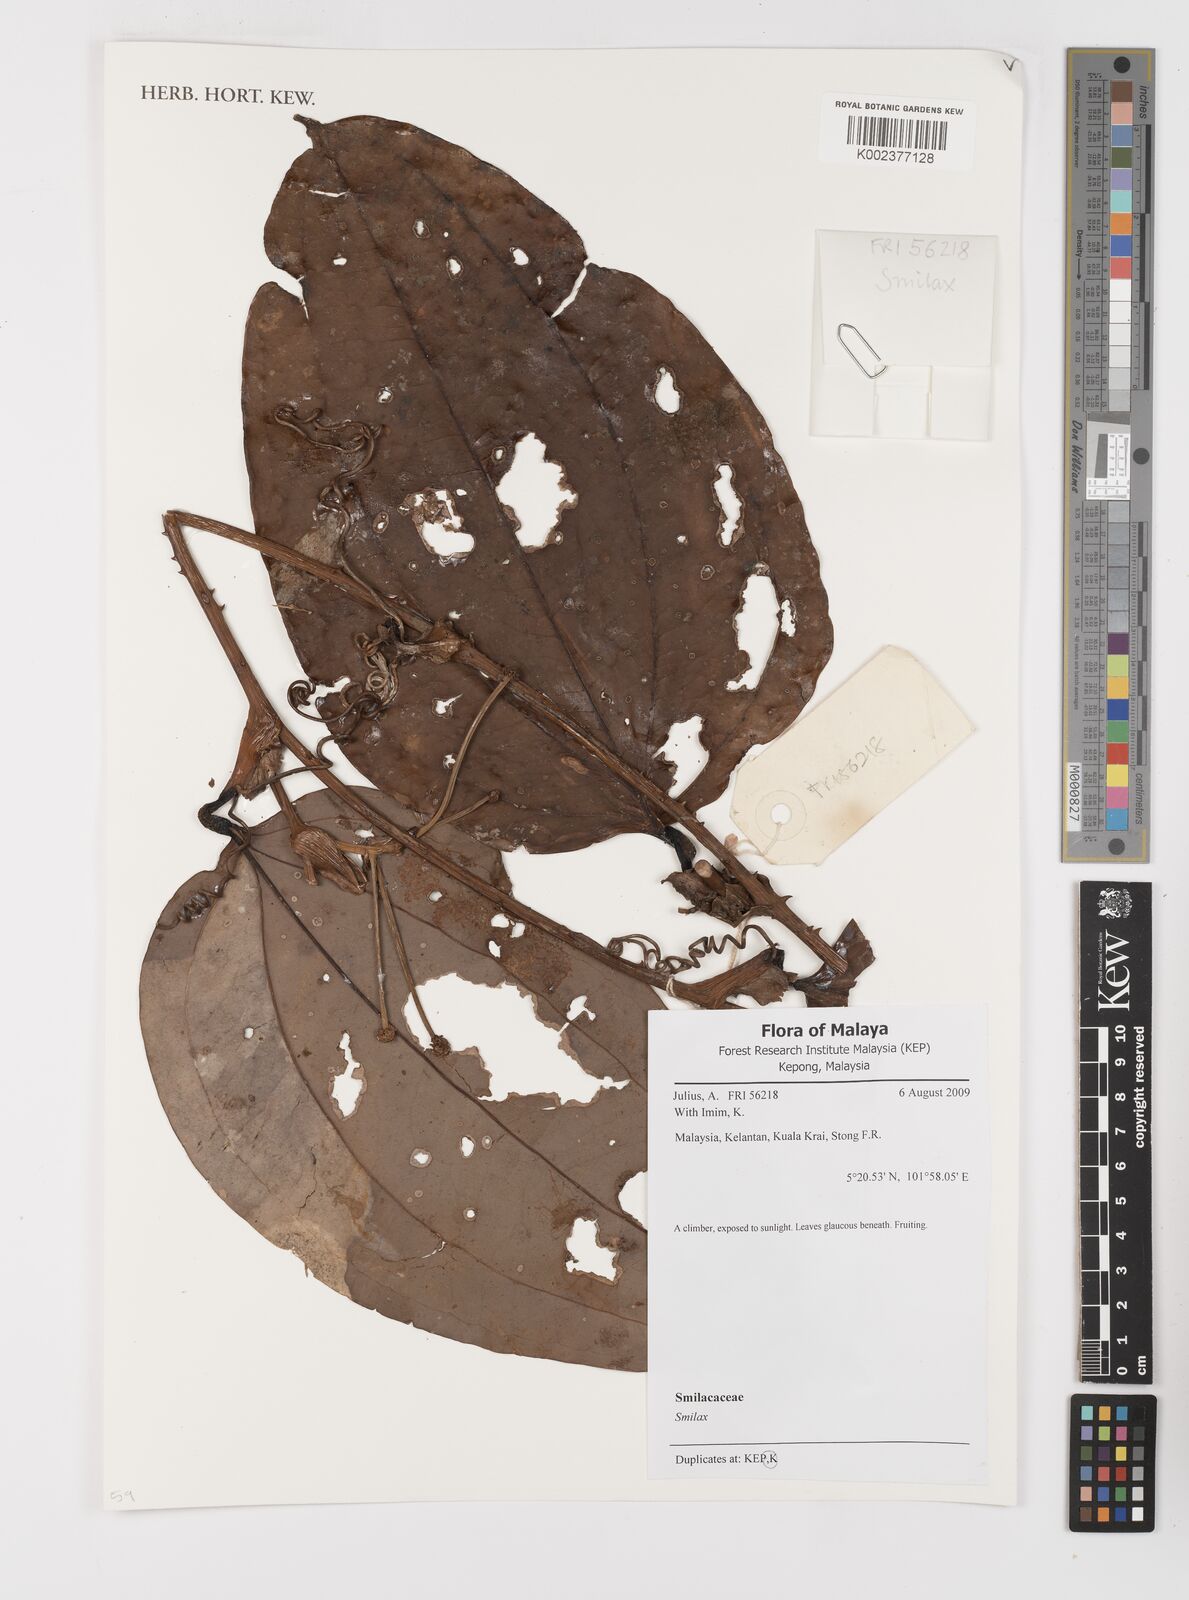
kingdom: Plantae
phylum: Tracheophyta
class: Liliopsida
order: Liliales
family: Smilacaceae
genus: Smilax
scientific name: Smilax
